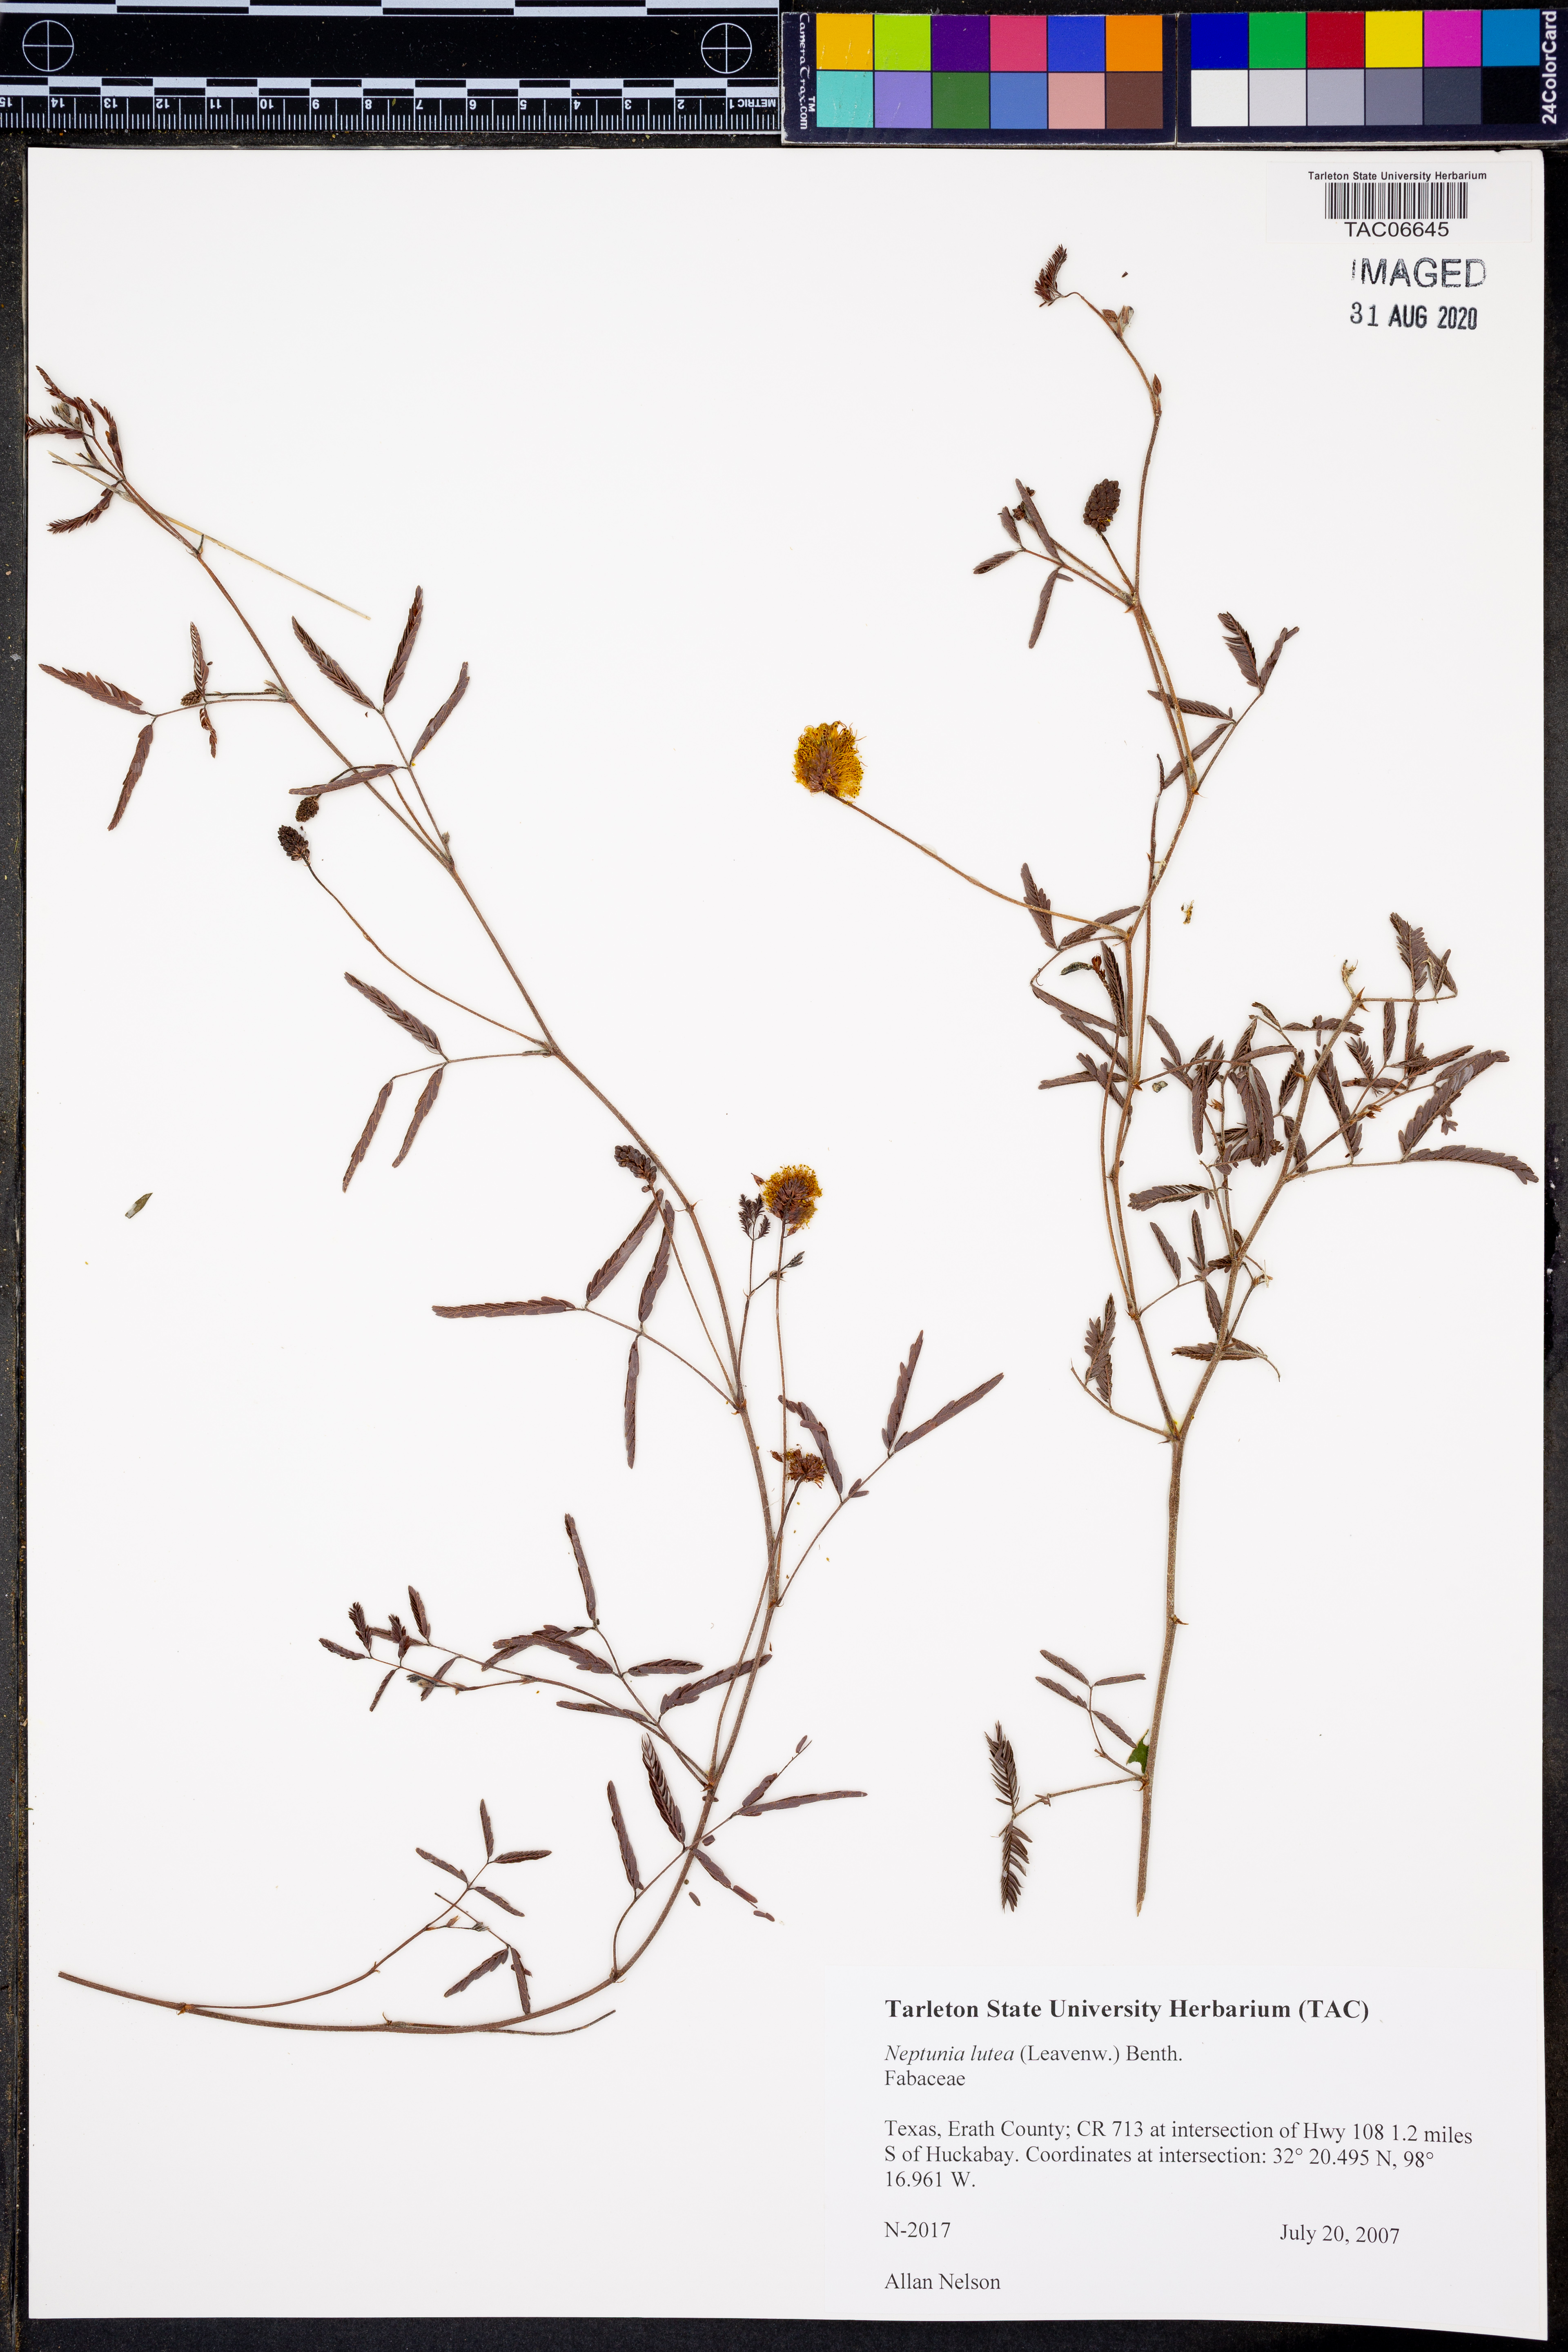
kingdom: Plantae
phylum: Tracheophyta
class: Magnoliopsida
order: Fabales
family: Fabaceae
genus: Neptunia
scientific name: Neptunia lutea
